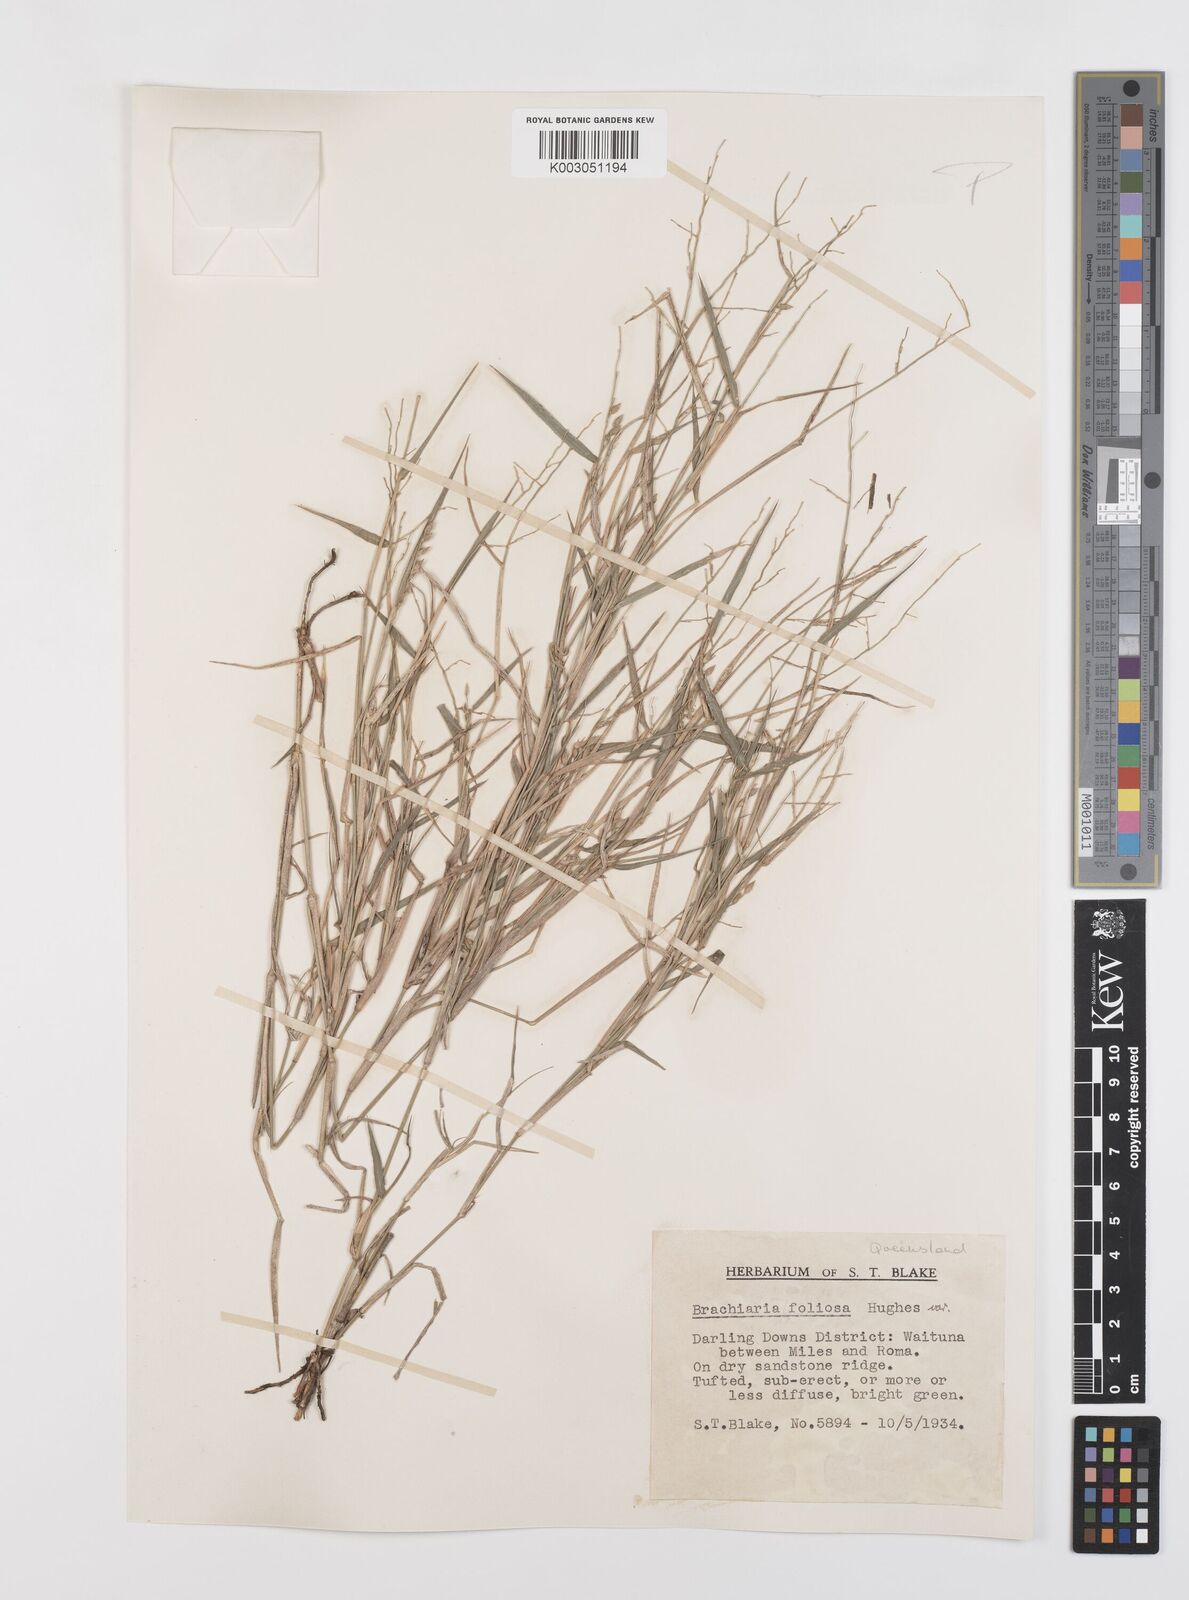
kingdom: Plantae
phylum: Tracheophyta
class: Liliopsida
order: Poales
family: Poaceae
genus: Urochloa
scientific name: Urochloa foliosa
